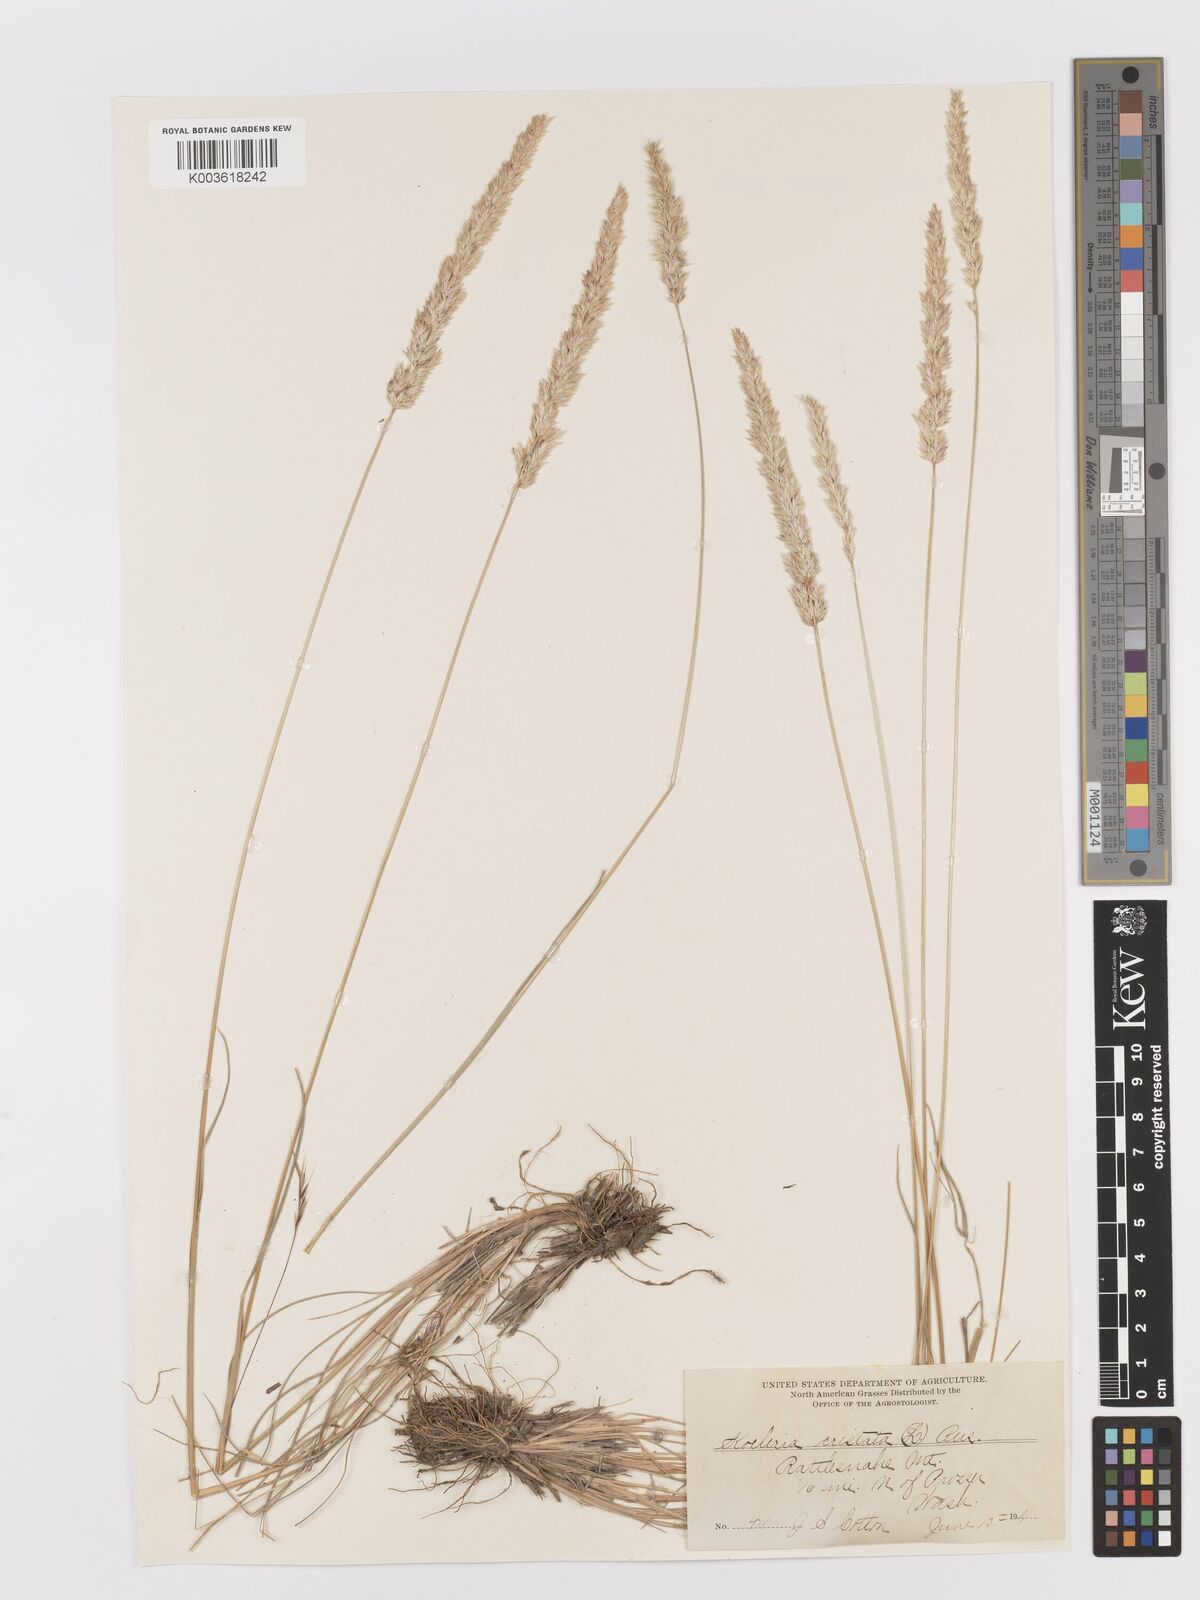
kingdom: Plantae
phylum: Tracheophyta
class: Liliopsida
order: Poales
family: Poaceae
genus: Koeleria
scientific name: Koeleria macrantha
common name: Crested hair-grass
